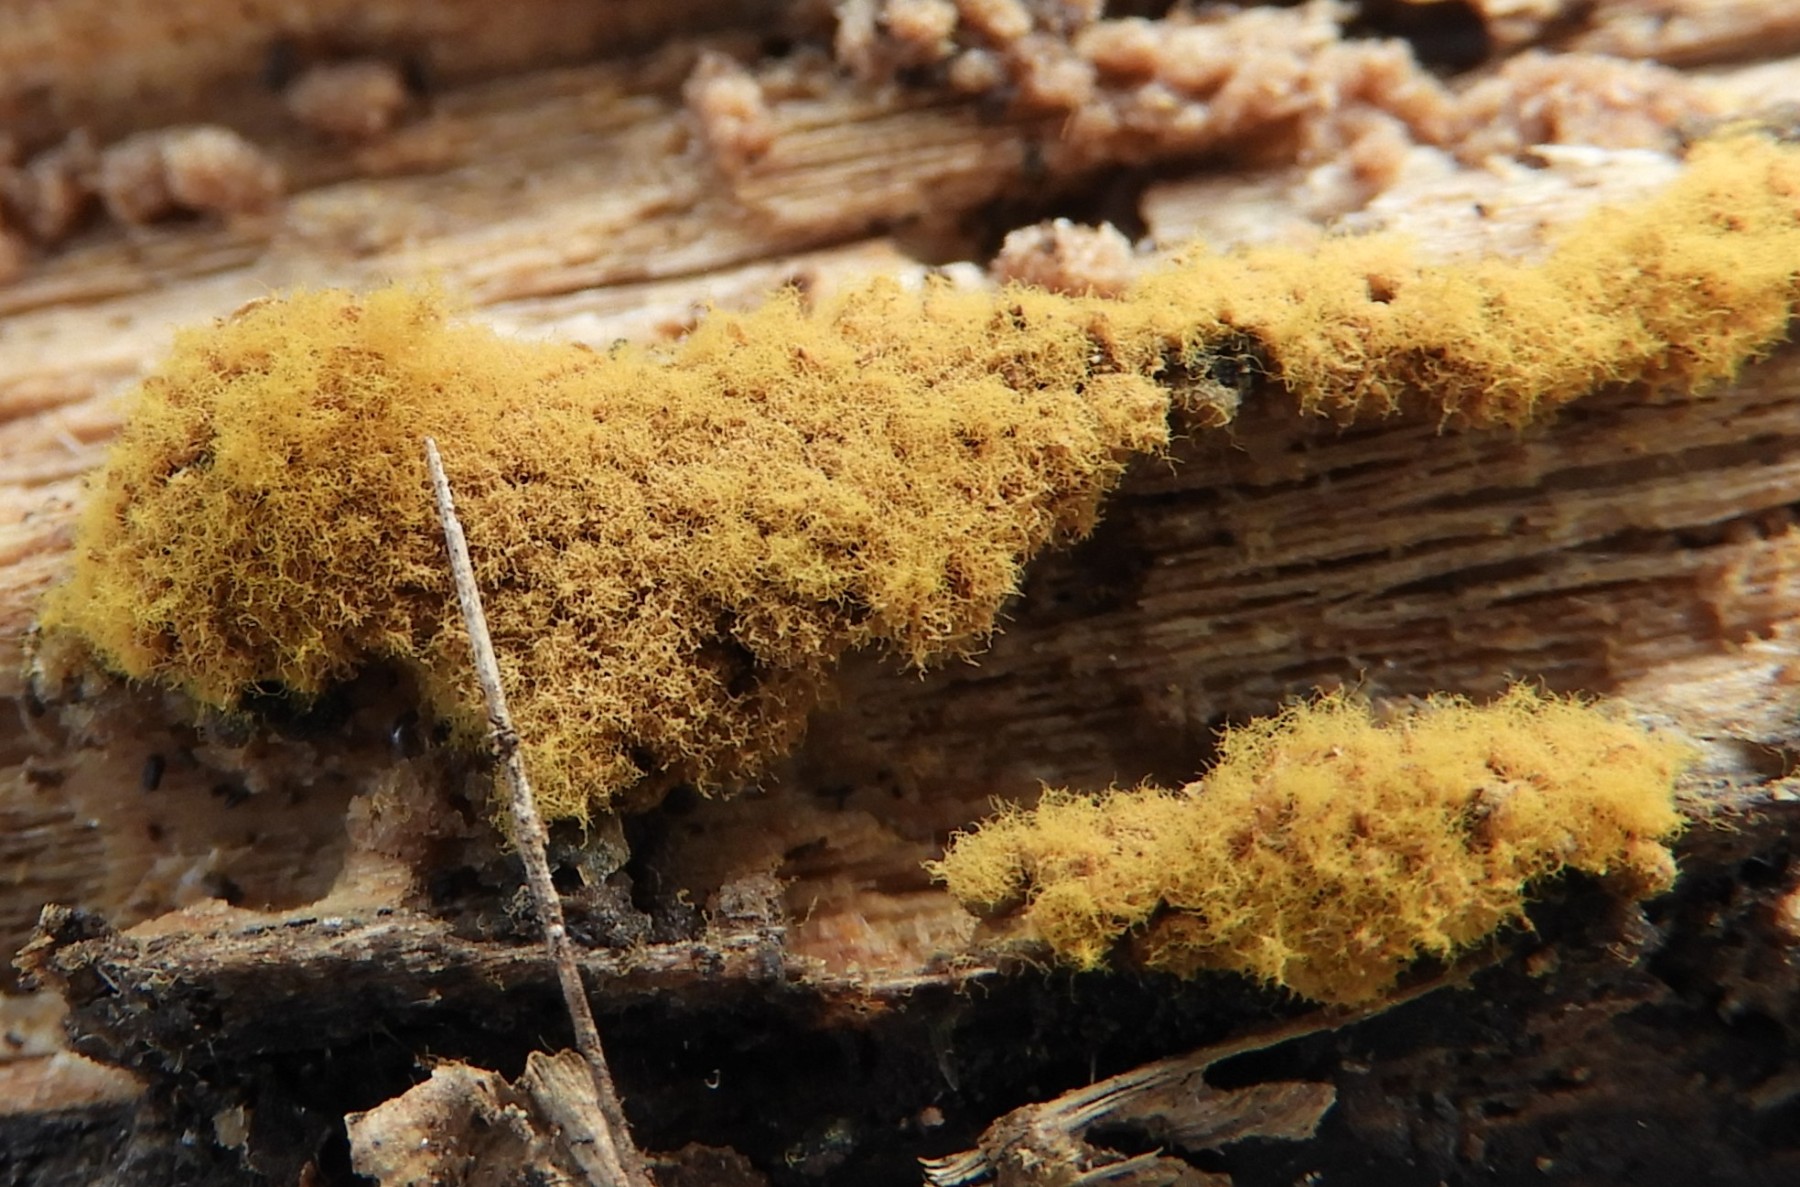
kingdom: Protozoa
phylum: Mycetozoa
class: Myxomycetes
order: Trichiales
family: Trichiaceae
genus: Trichia
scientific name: Trichia varia
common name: foranderlig hårbold
